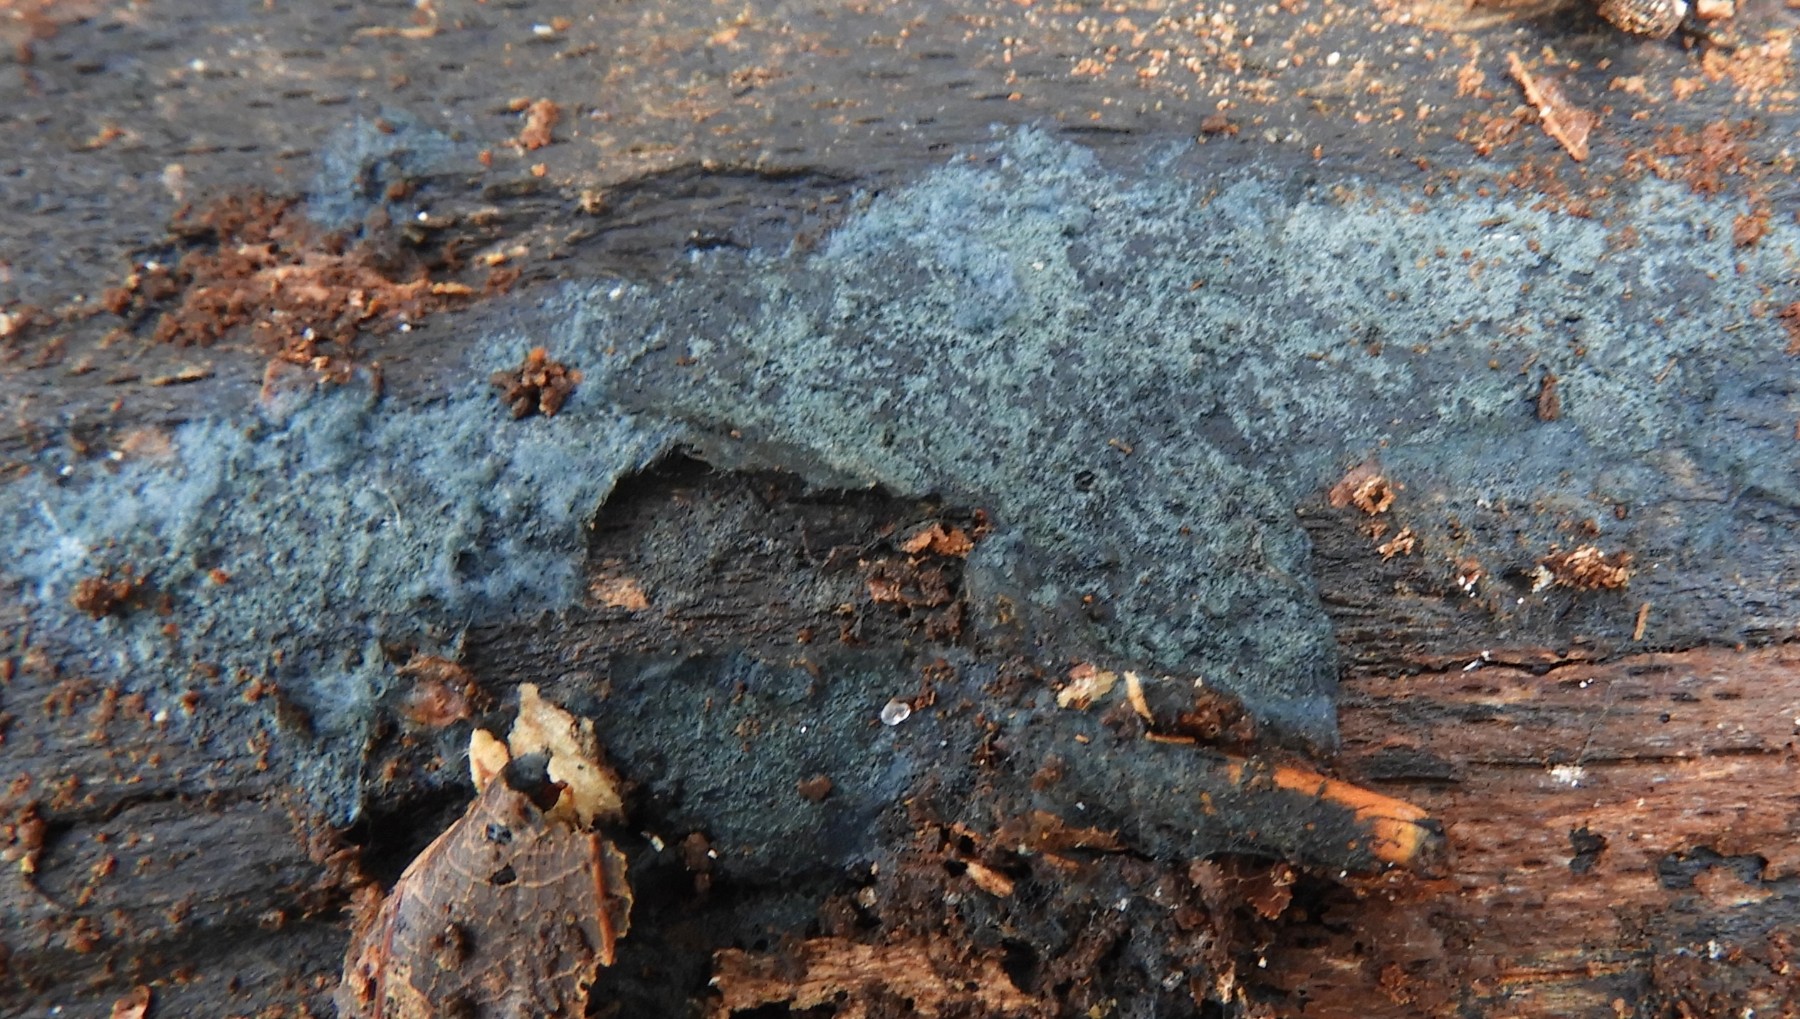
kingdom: Fungi
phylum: Basidiomycota
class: Agaricomycetes
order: Corticiales
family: Corticiaceae
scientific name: Corticiaceae
